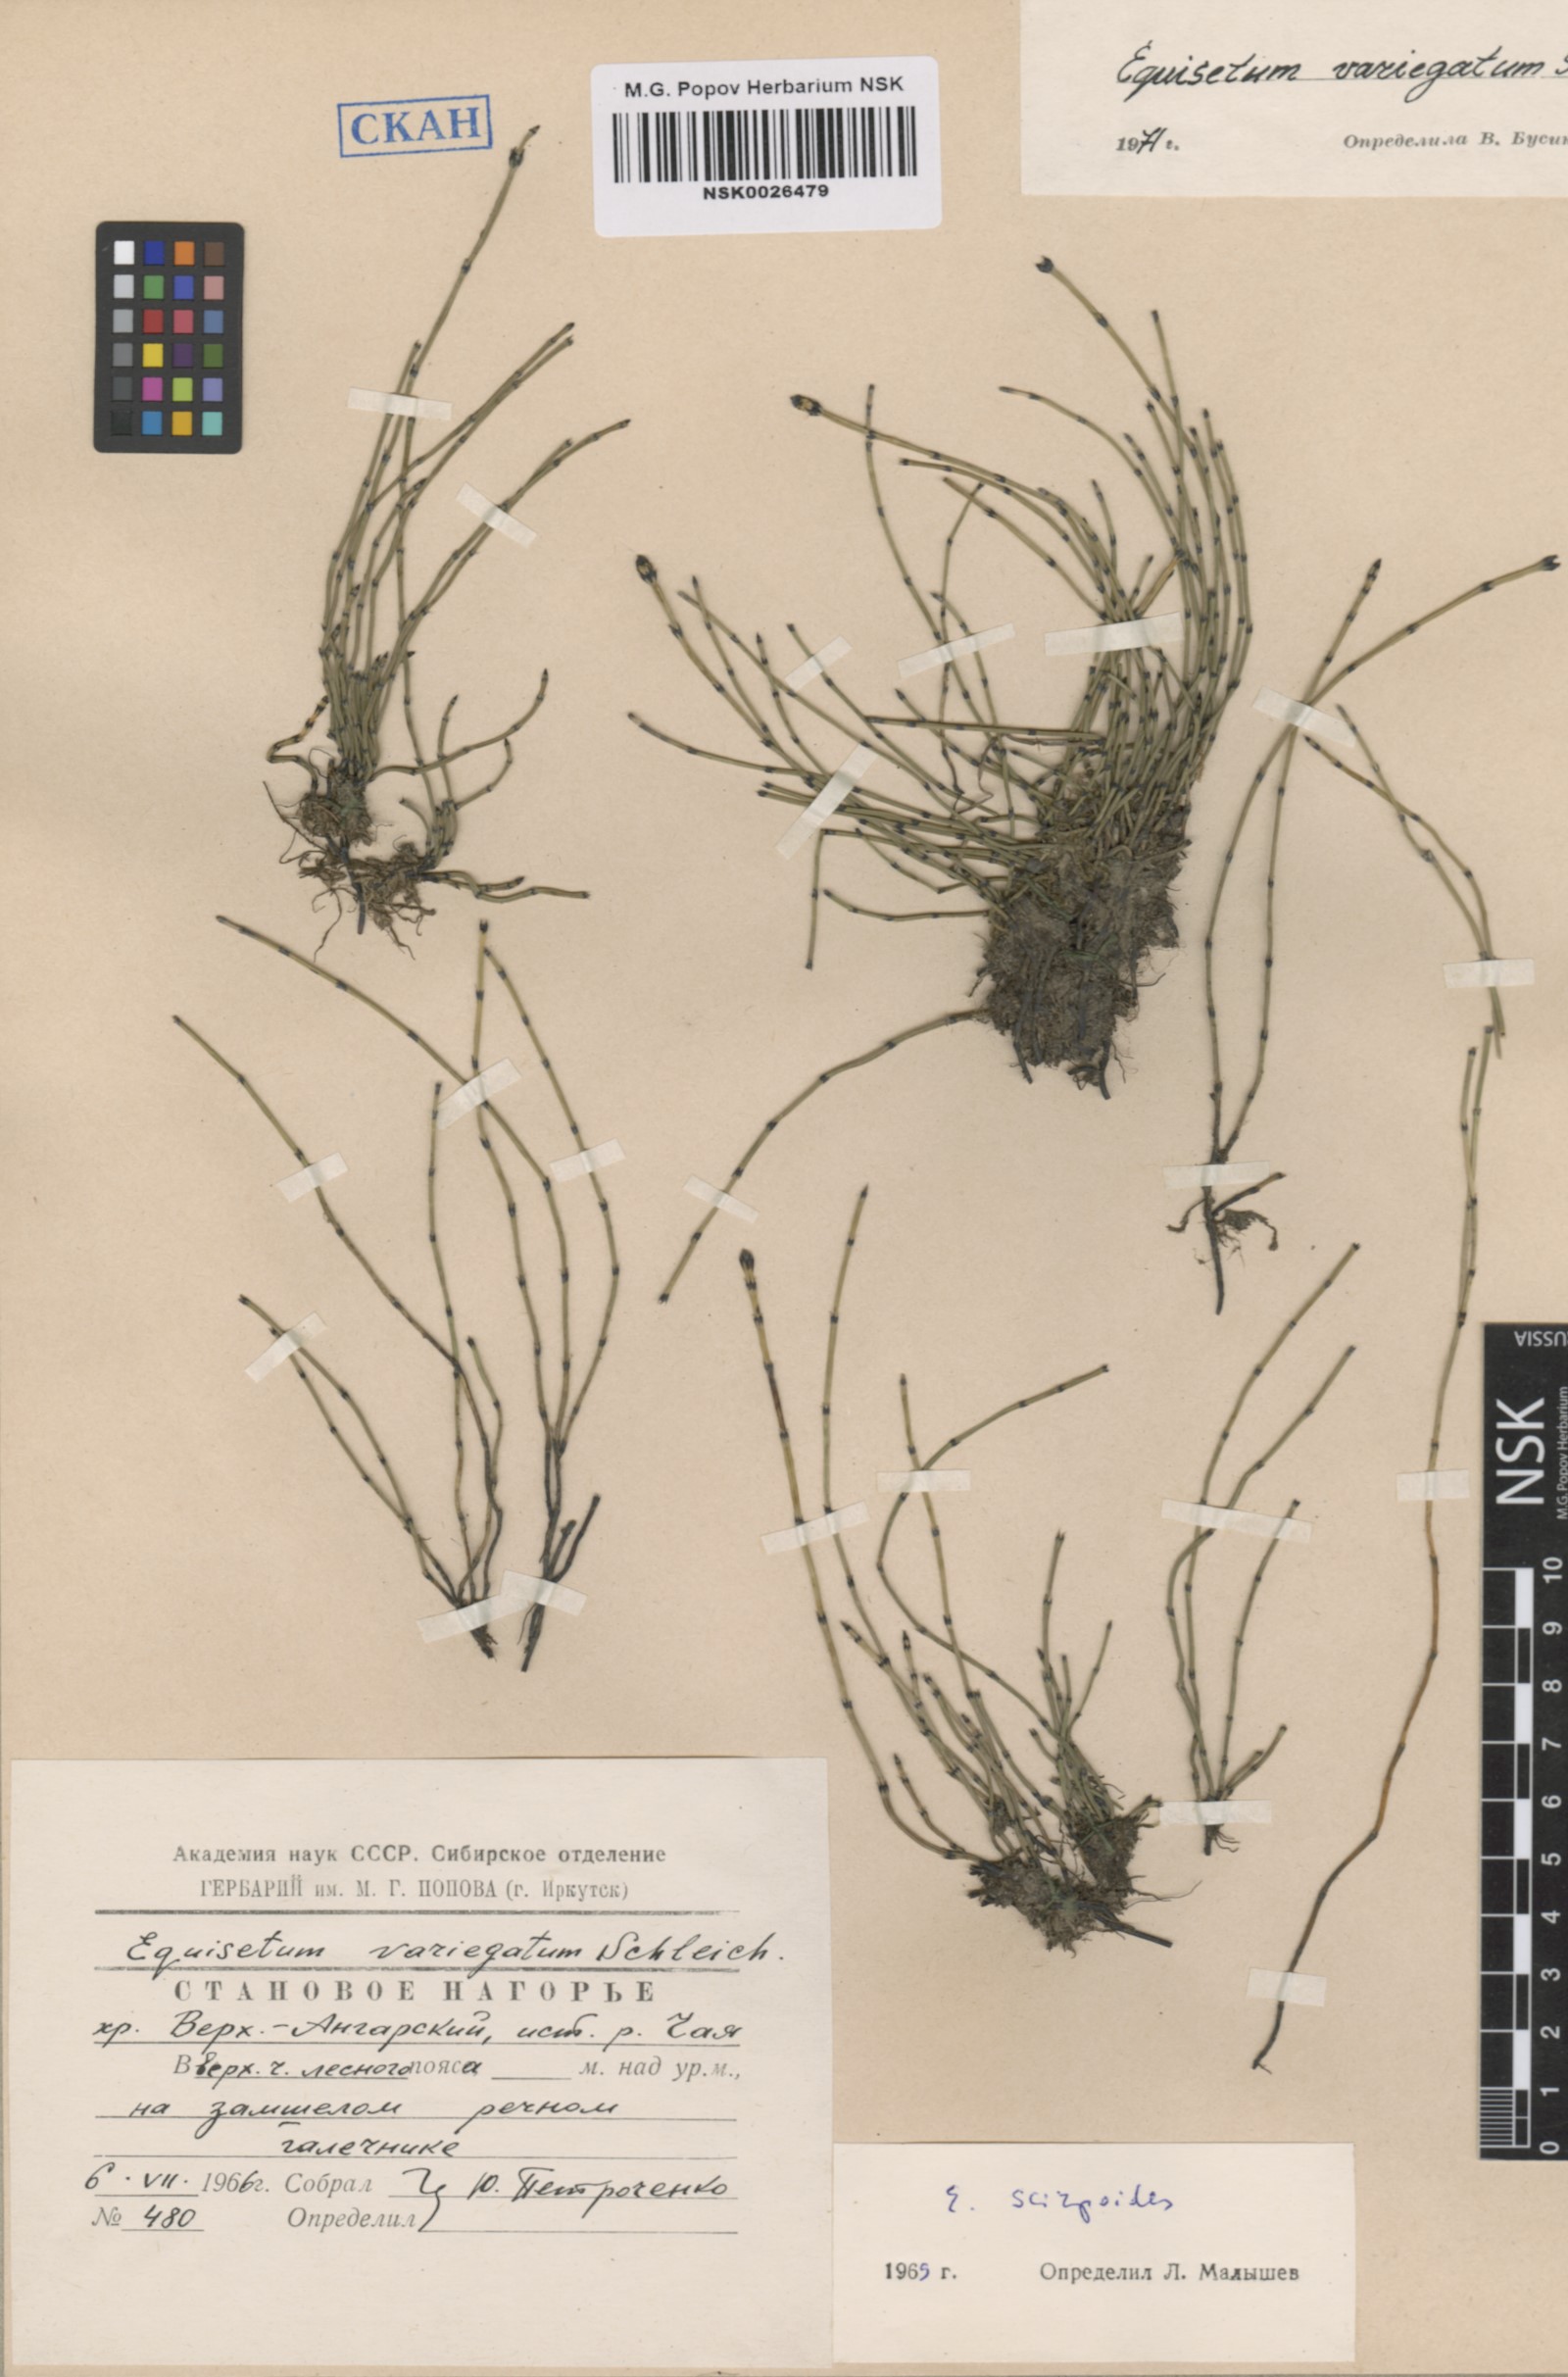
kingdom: Plantae
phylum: Tracheophyta
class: Polypodiopsida
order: Equisetales
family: Equisetaceae
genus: Equisetum
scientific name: Equisetum variegatum
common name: Variegated horsetail
